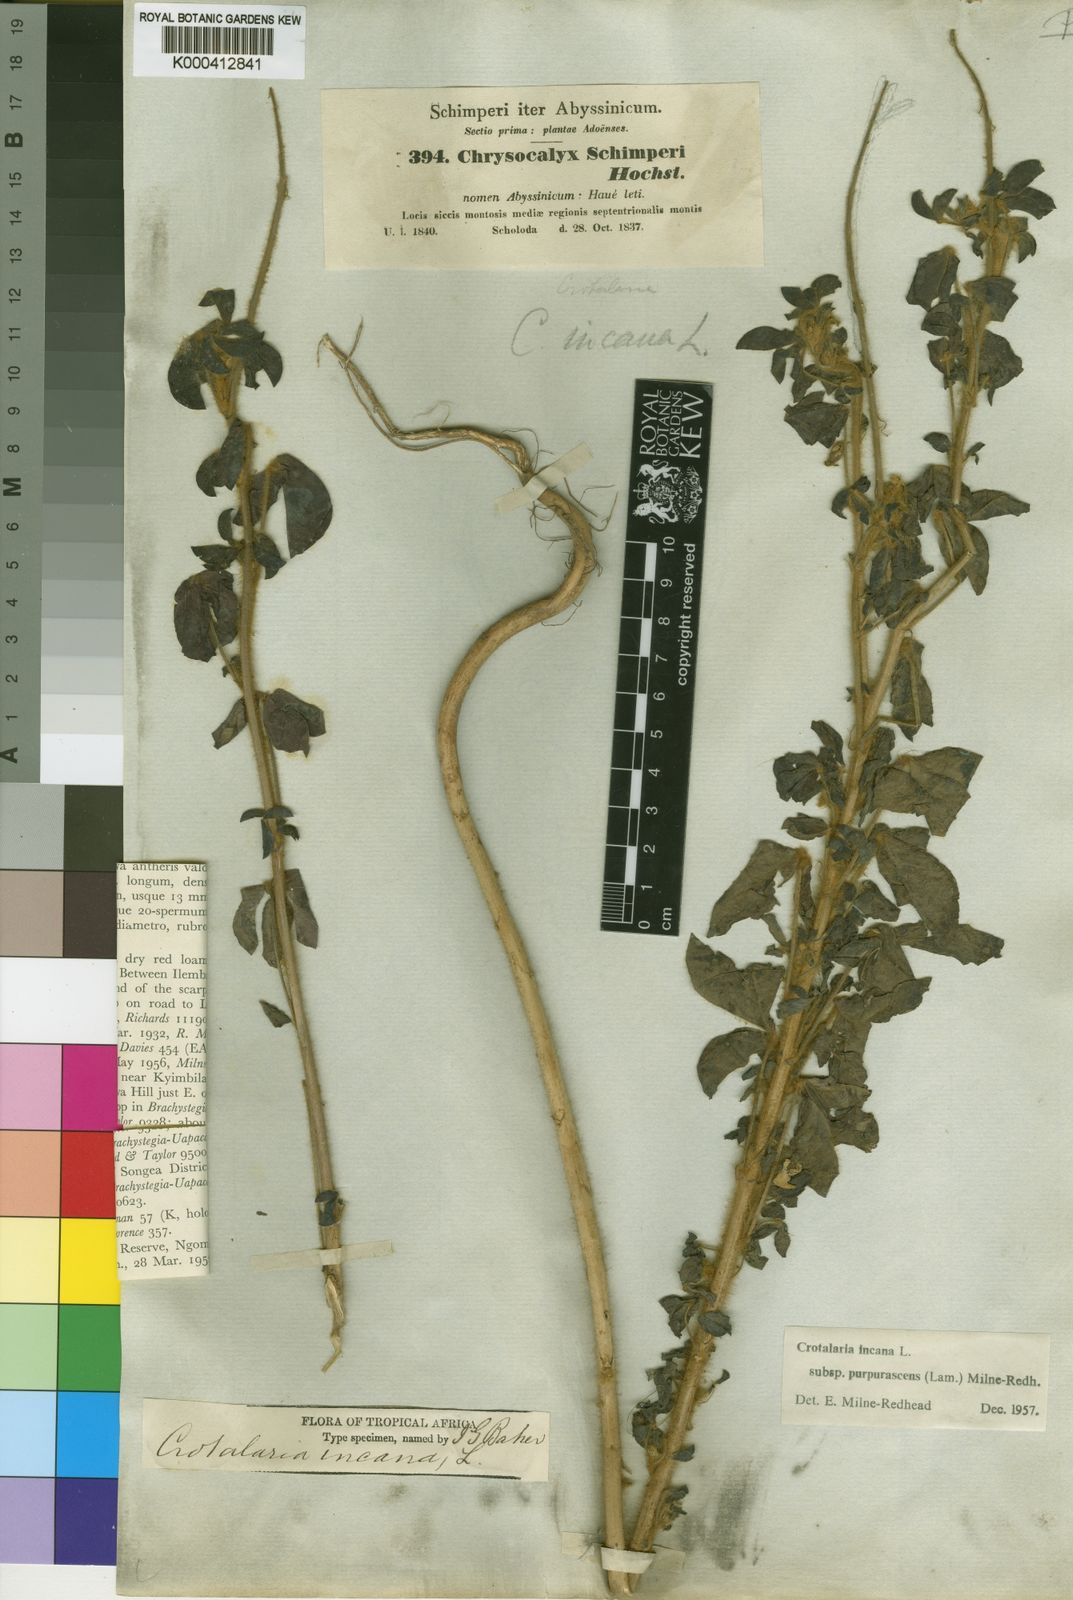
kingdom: Plantae
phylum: Tracheophyta
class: Magnoliopsida
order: Fabales
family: Fabaceae
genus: Crotalaria
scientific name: Crotalaria incana
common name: Shakeshake
